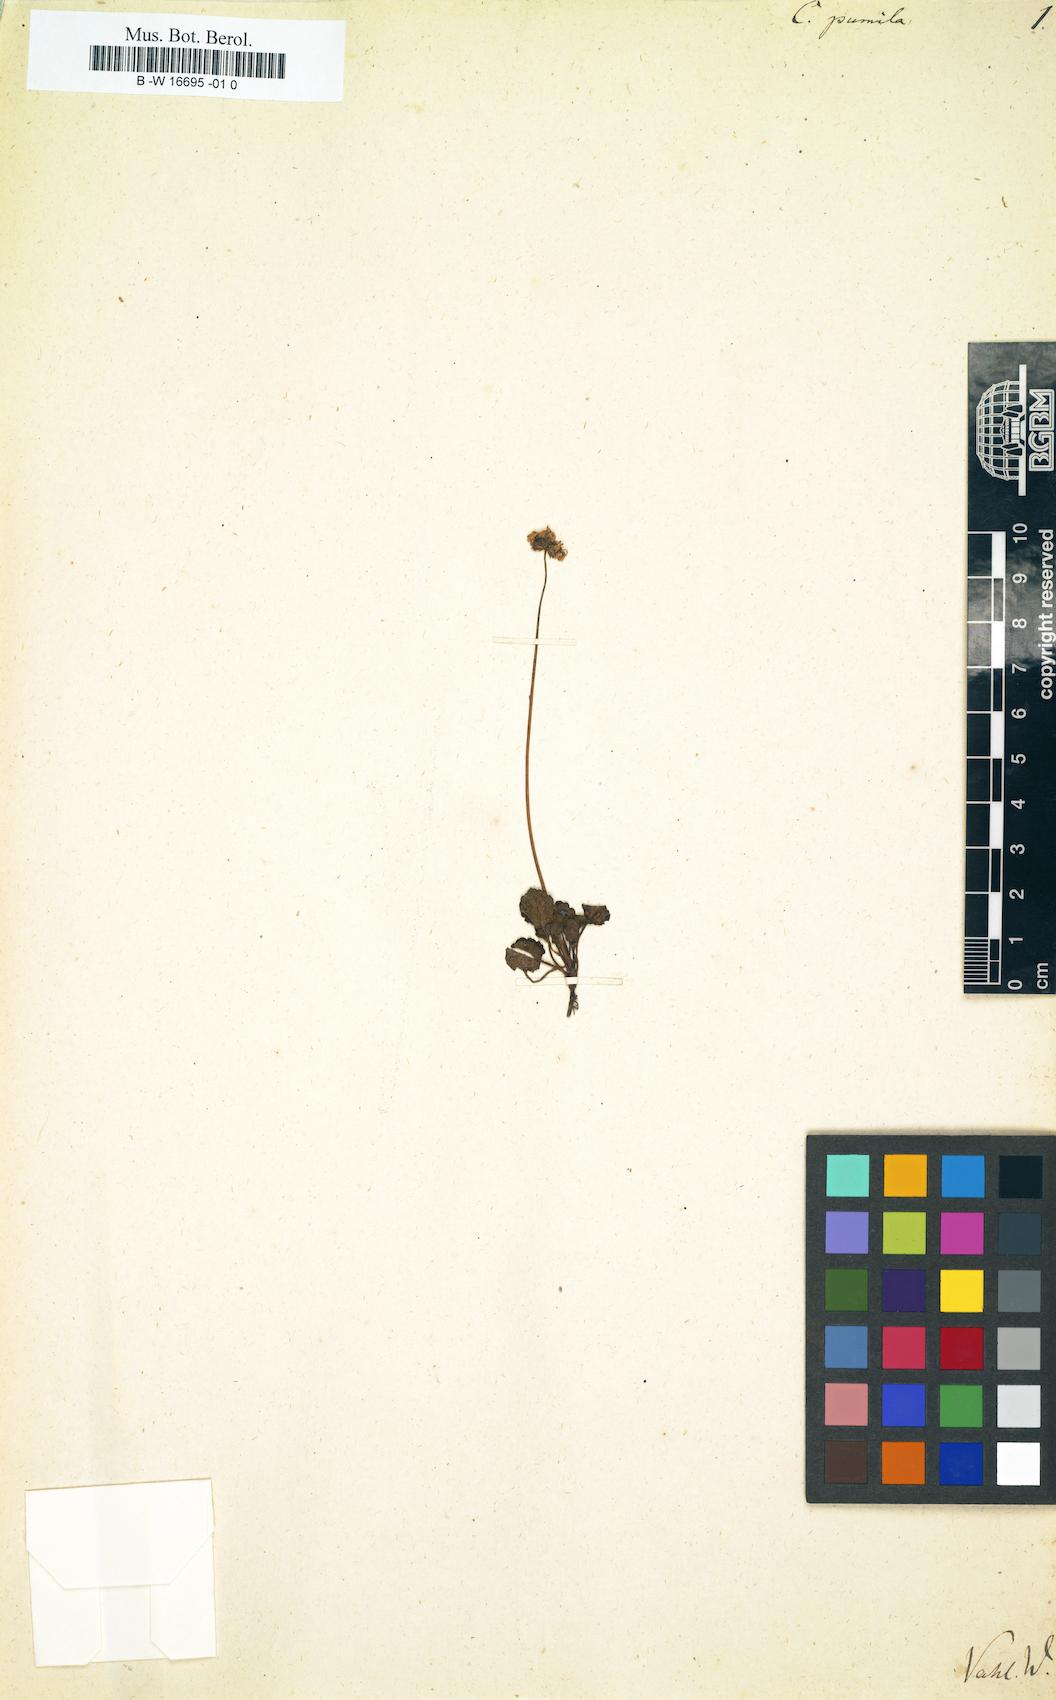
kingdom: Plantae
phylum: Tracheophyta
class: Magnoliopsida
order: Asterales
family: Asteraceae
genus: Lagenophora
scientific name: Lagenophora pumila
